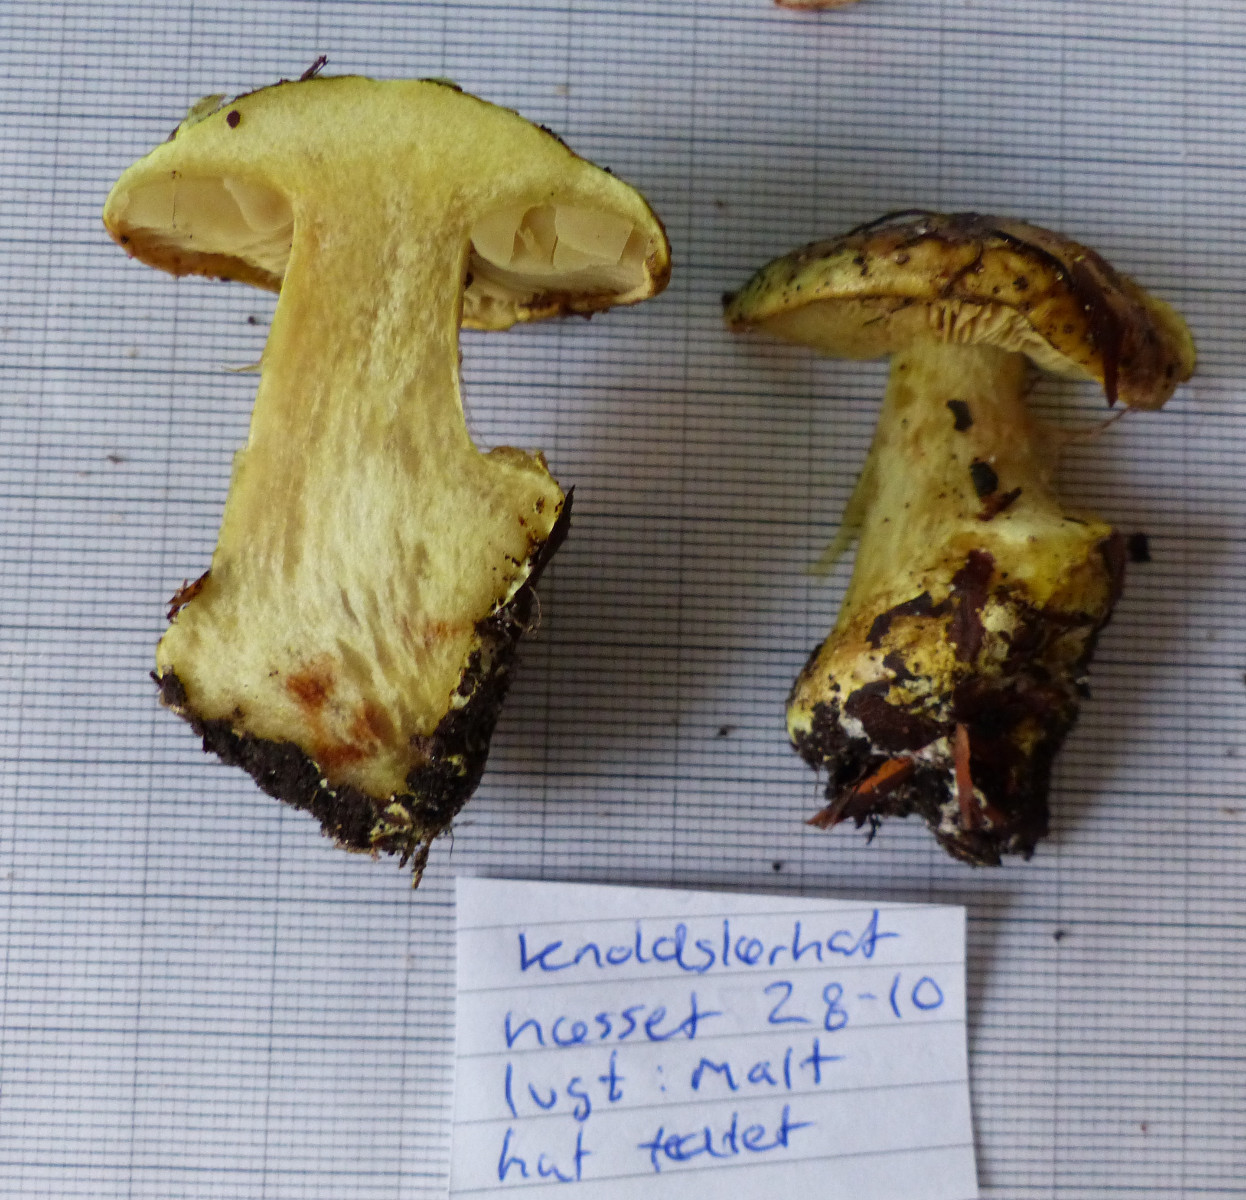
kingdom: Fungi
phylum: Basidiomycota
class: Agaricomycetes
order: Agaricales
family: Cortinariaceae
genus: Calonarius
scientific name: Calonarius citrinus
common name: citrongul slørhat
